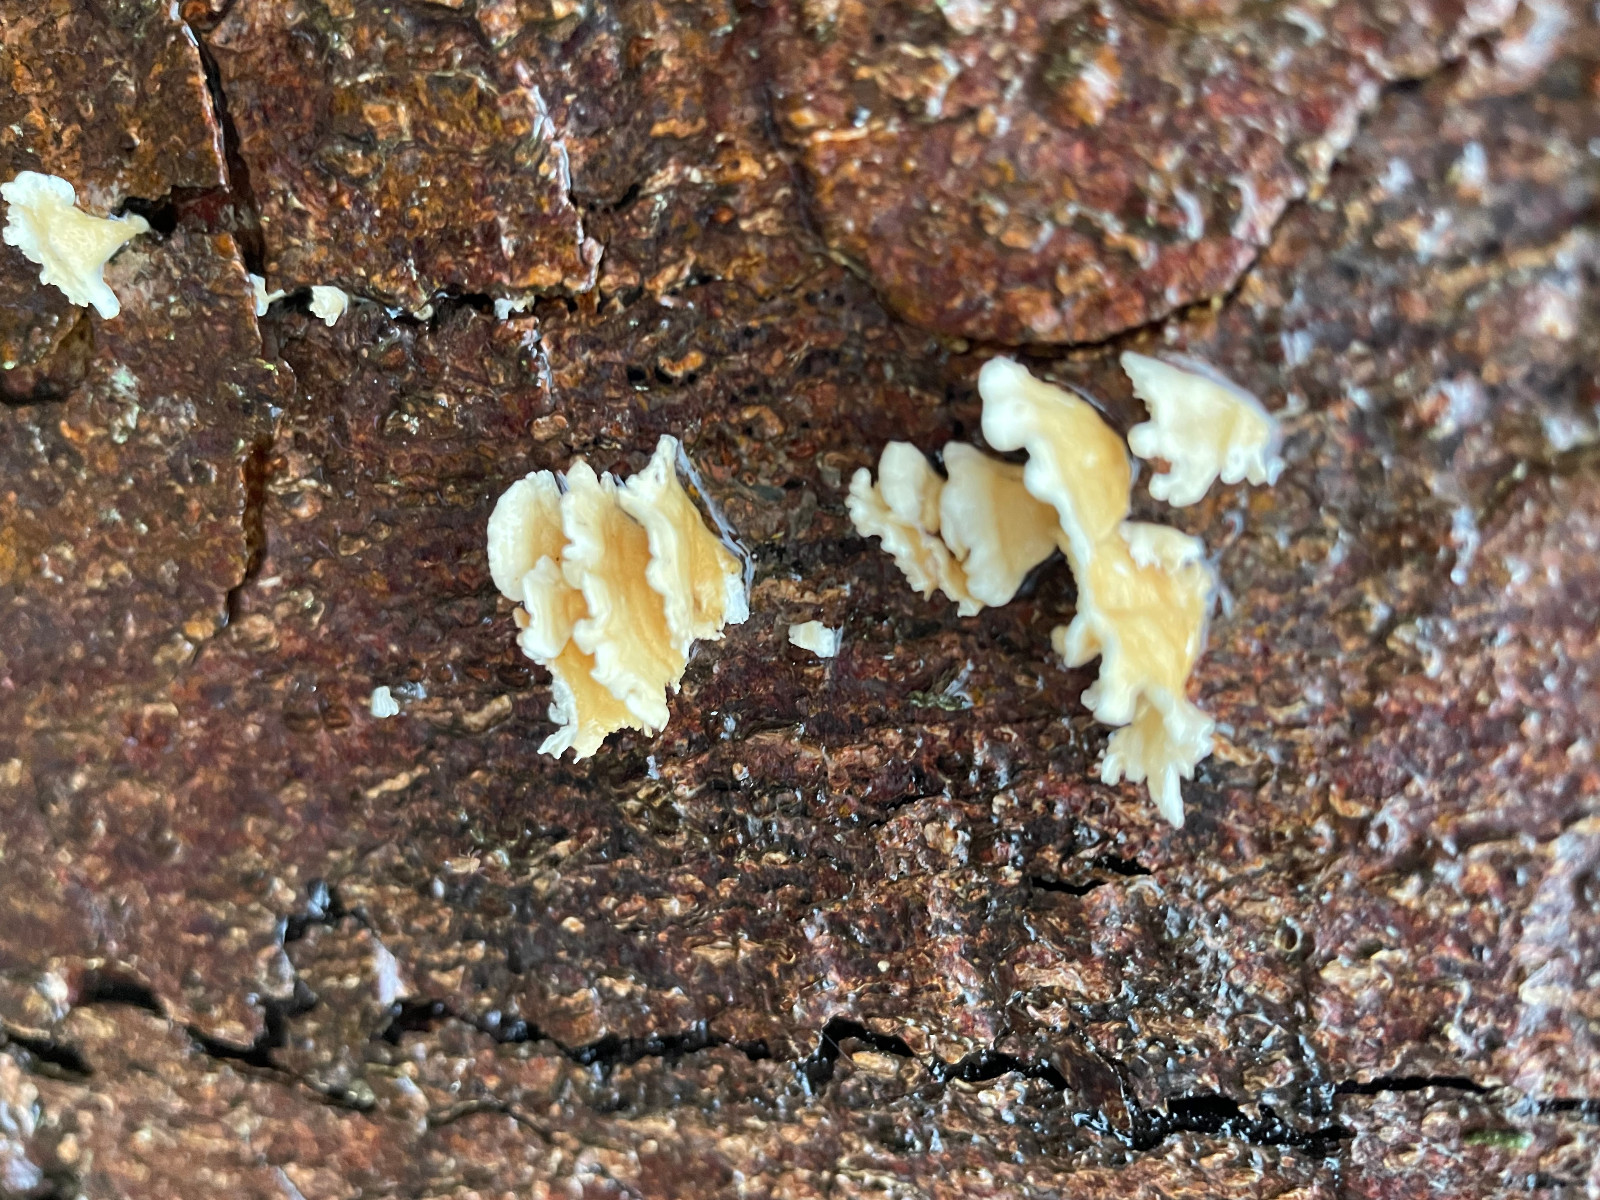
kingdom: Fungi
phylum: Basidiomycota
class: Agaricomycetes
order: Amylocorticiales
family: Amylocorticiaceae
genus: Plicaturopsis
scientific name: Plicaturopsis crispa
